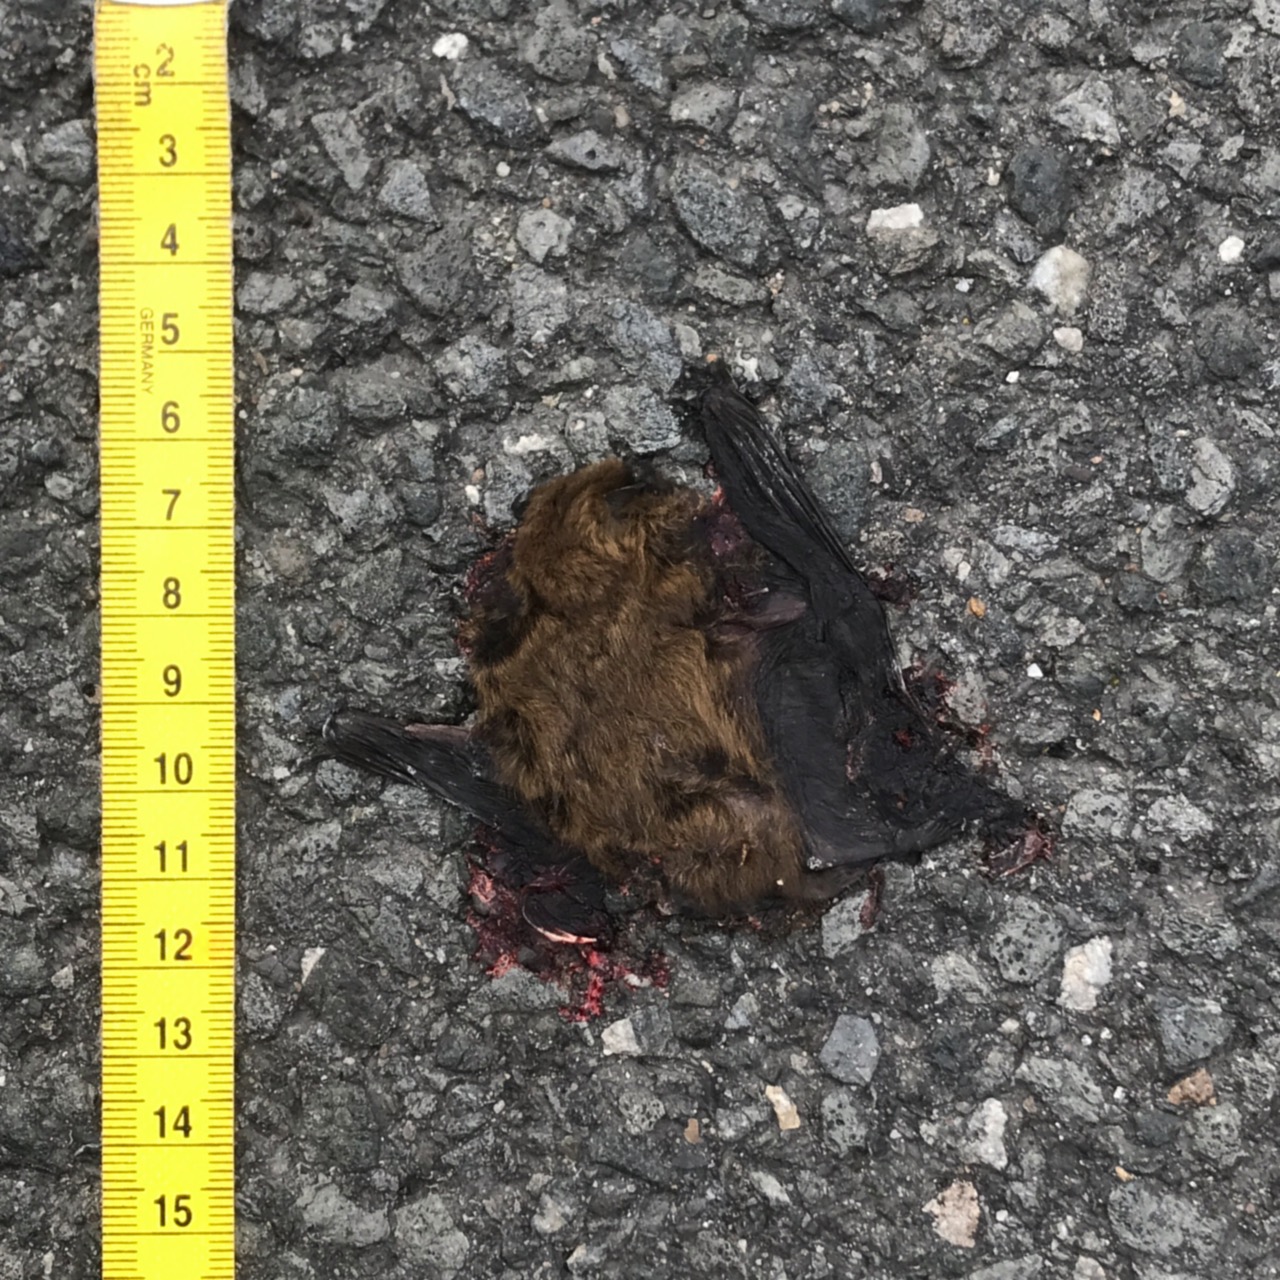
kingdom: Animalia
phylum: Chordata
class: Mammalia
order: Chiroptera
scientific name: Chiroptera
